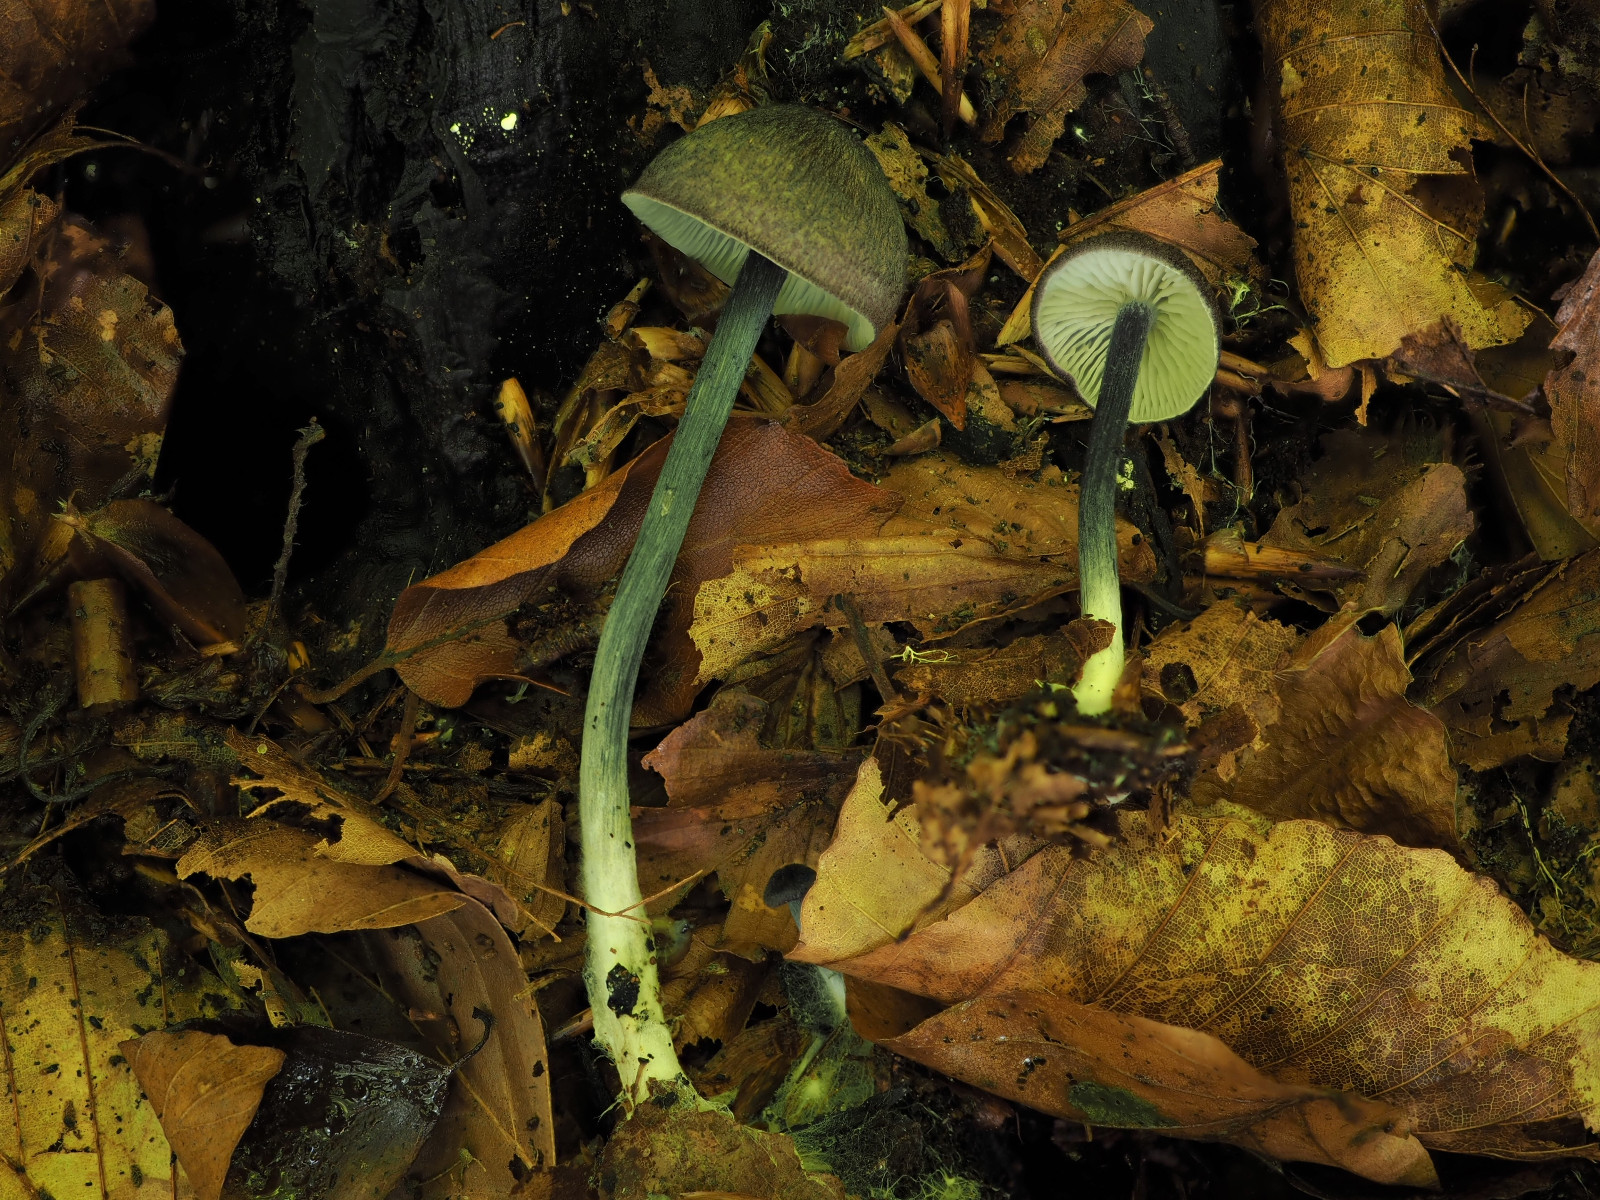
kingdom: Fungi
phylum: Basidiomycota
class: Agaricomycetes
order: Agaricales
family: Entolomataceae
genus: Entoloma
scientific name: Entoloma placidum
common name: bøge-rødblad
